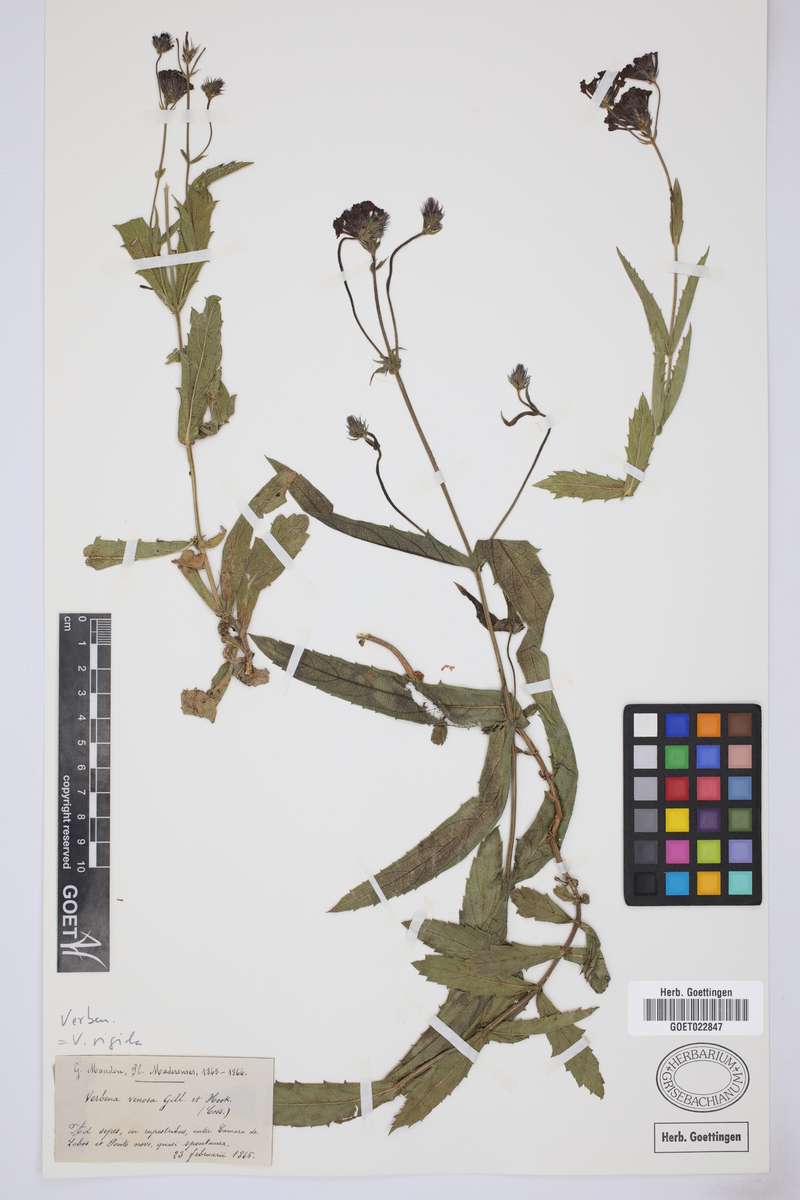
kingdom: Plantae
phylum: Tracheophyta
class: Magnoliopsida
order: Lamiales
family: Verbenaceae
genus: Verbena
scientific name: Verbena rigida
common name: Slender vervain
